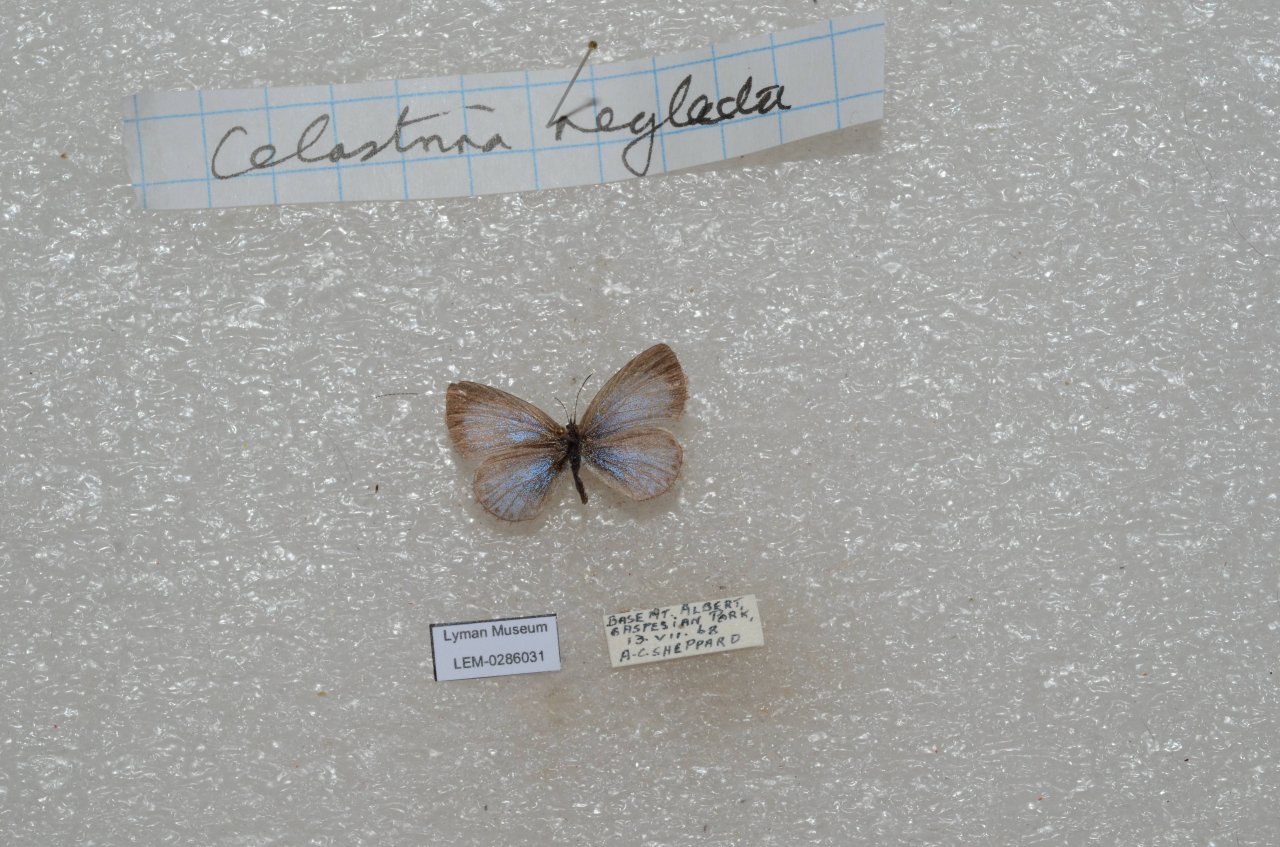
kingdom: Animalia
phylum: Arthropoda
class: Insecta
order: Lepidoptera
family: Lycaenidae
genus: Celastrina
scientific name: Celastrina lucia
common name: Northern Spring Azure
